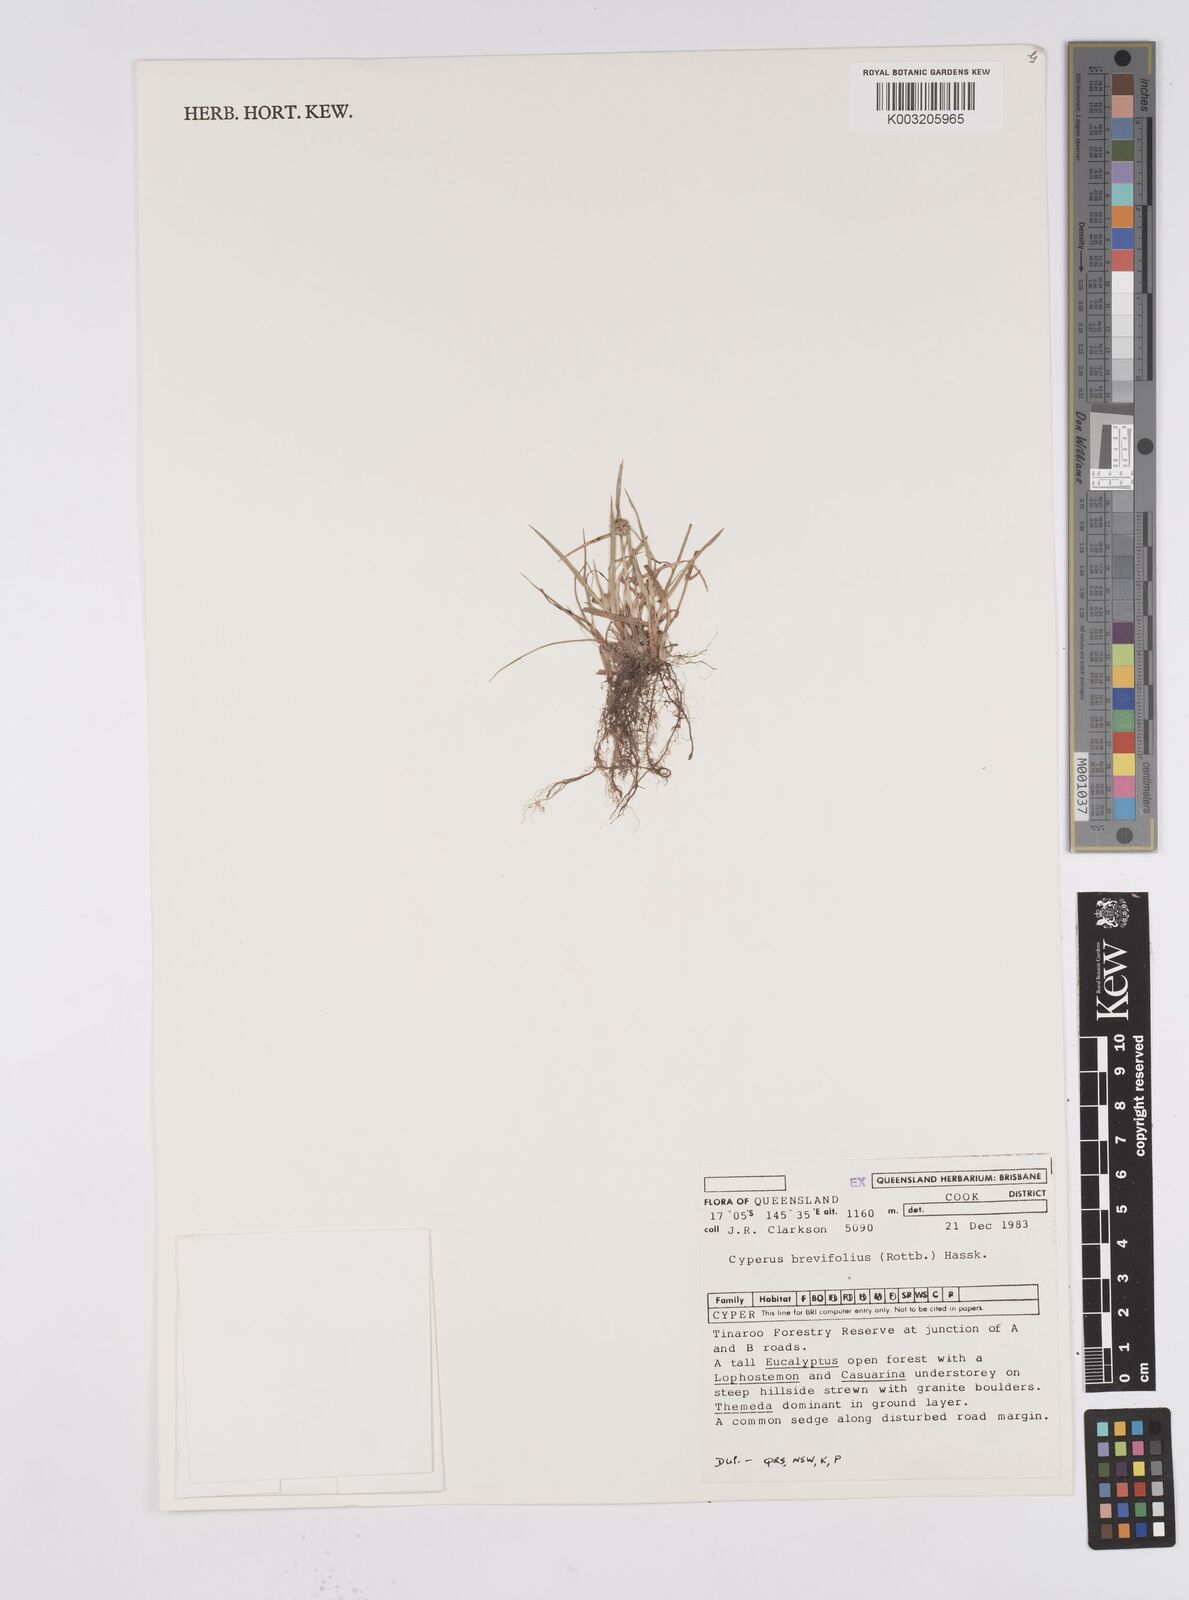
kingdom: Plantae
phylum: Tracheophyta
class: Liliopsida
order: Poales
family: Cyperaceae
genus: Cyperus
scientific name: Cyperus brevifolius
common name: Globe kyllinga
